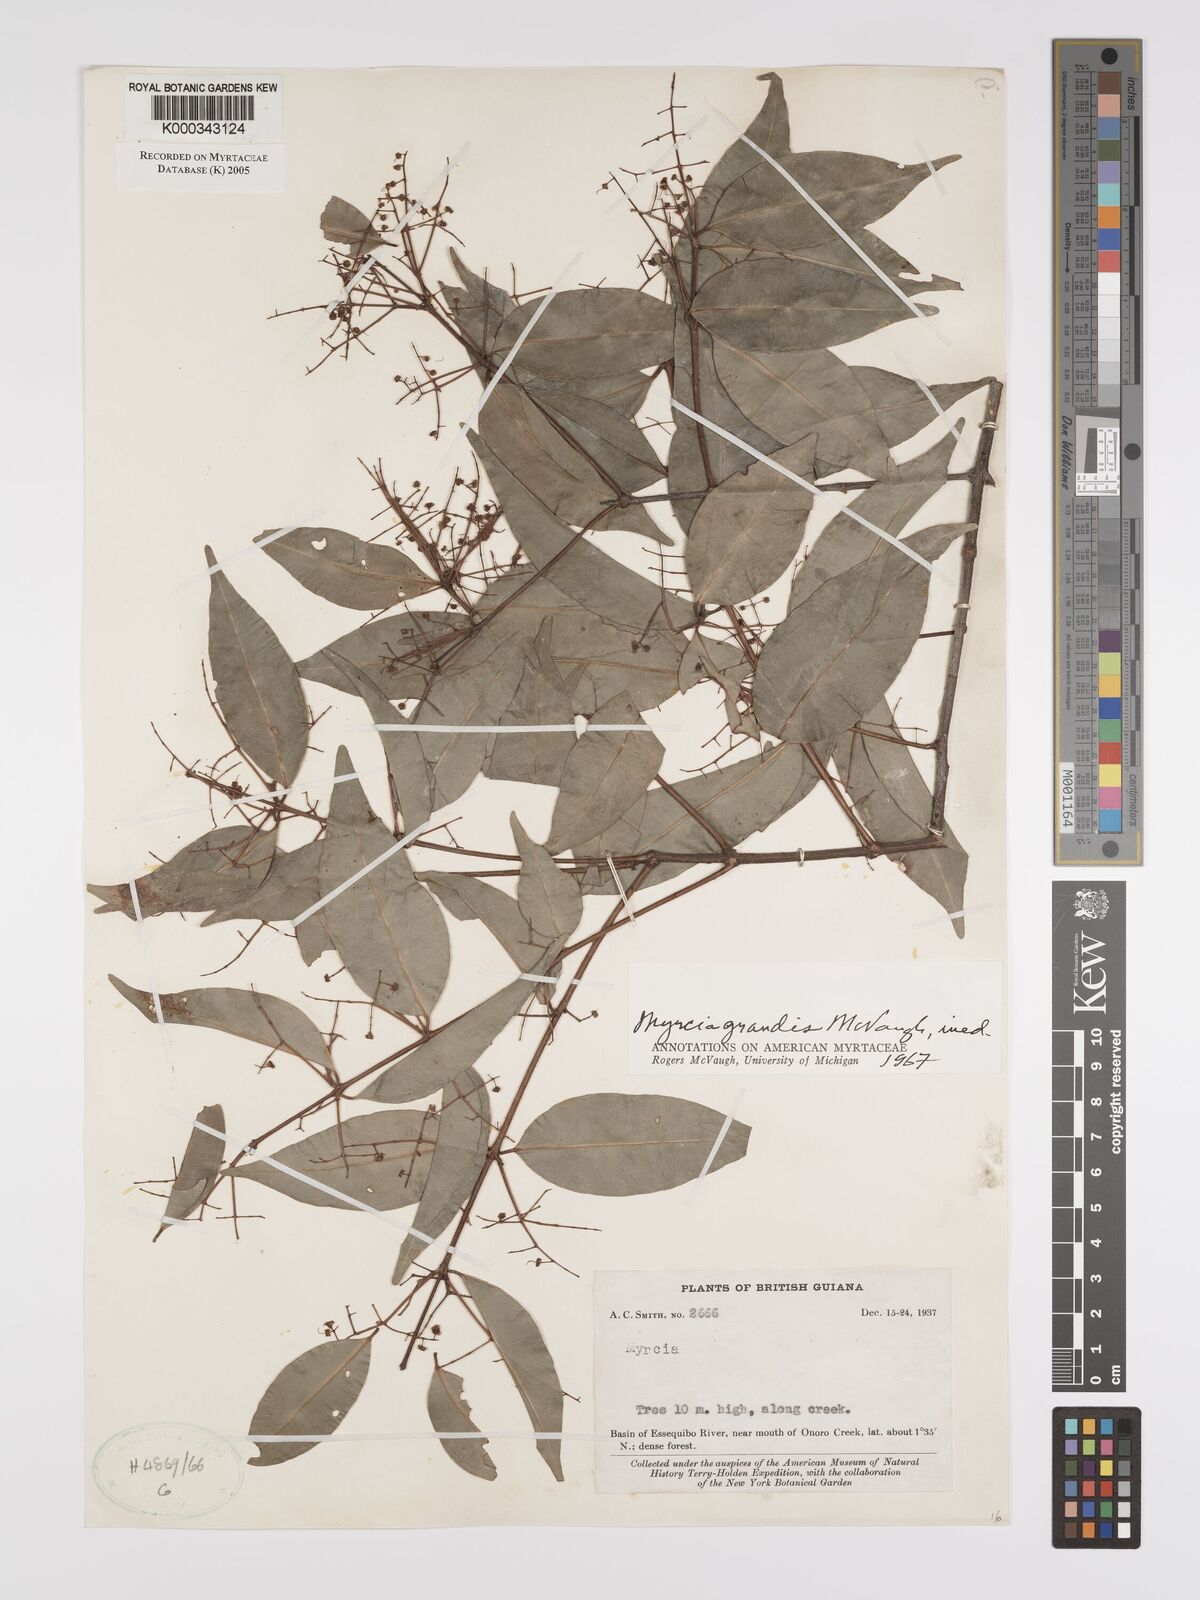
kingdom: Plantae
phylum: Tracheophyta
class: Magnoliopsida
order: Myrtales
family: Myrtaceae
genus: Myrcia
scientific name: Myrcia grandis
